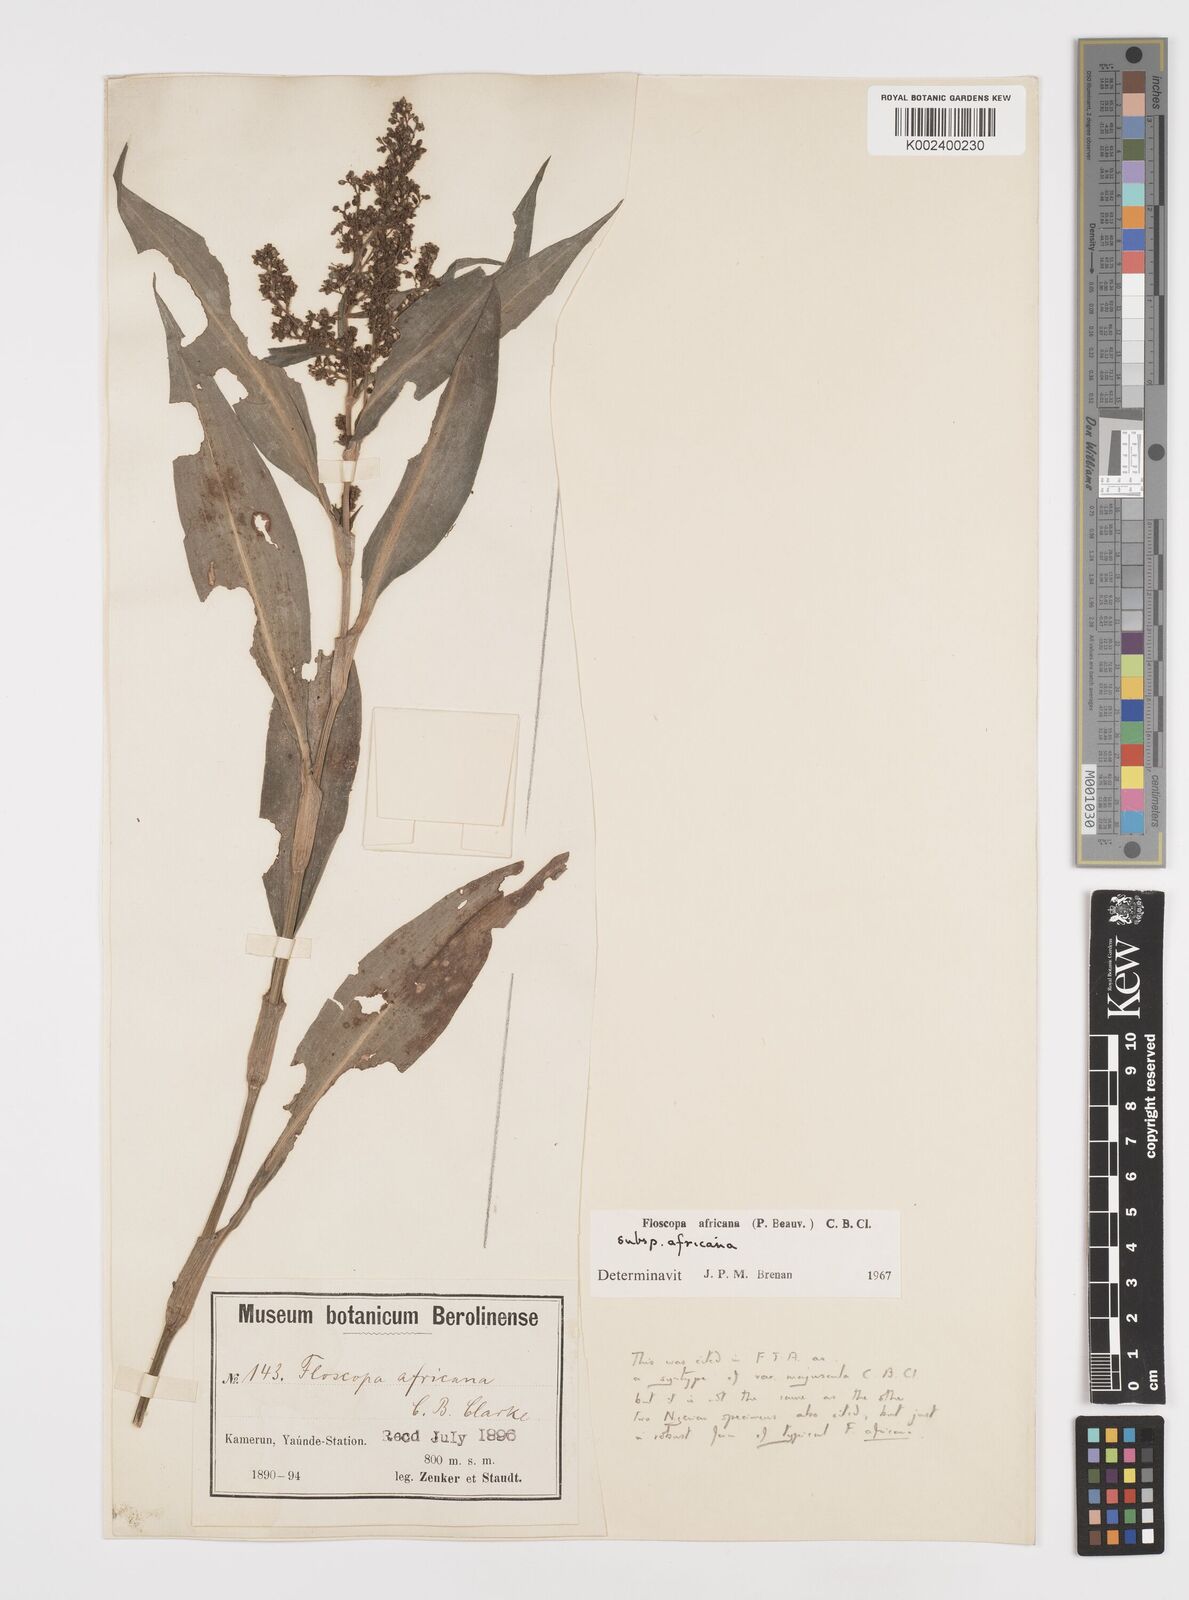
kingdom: Plantae
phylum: Tracheophyta
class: Liliopsida
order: Commelinales
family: Commelinaceae
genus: Floscopa
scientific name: Floscopa africana
